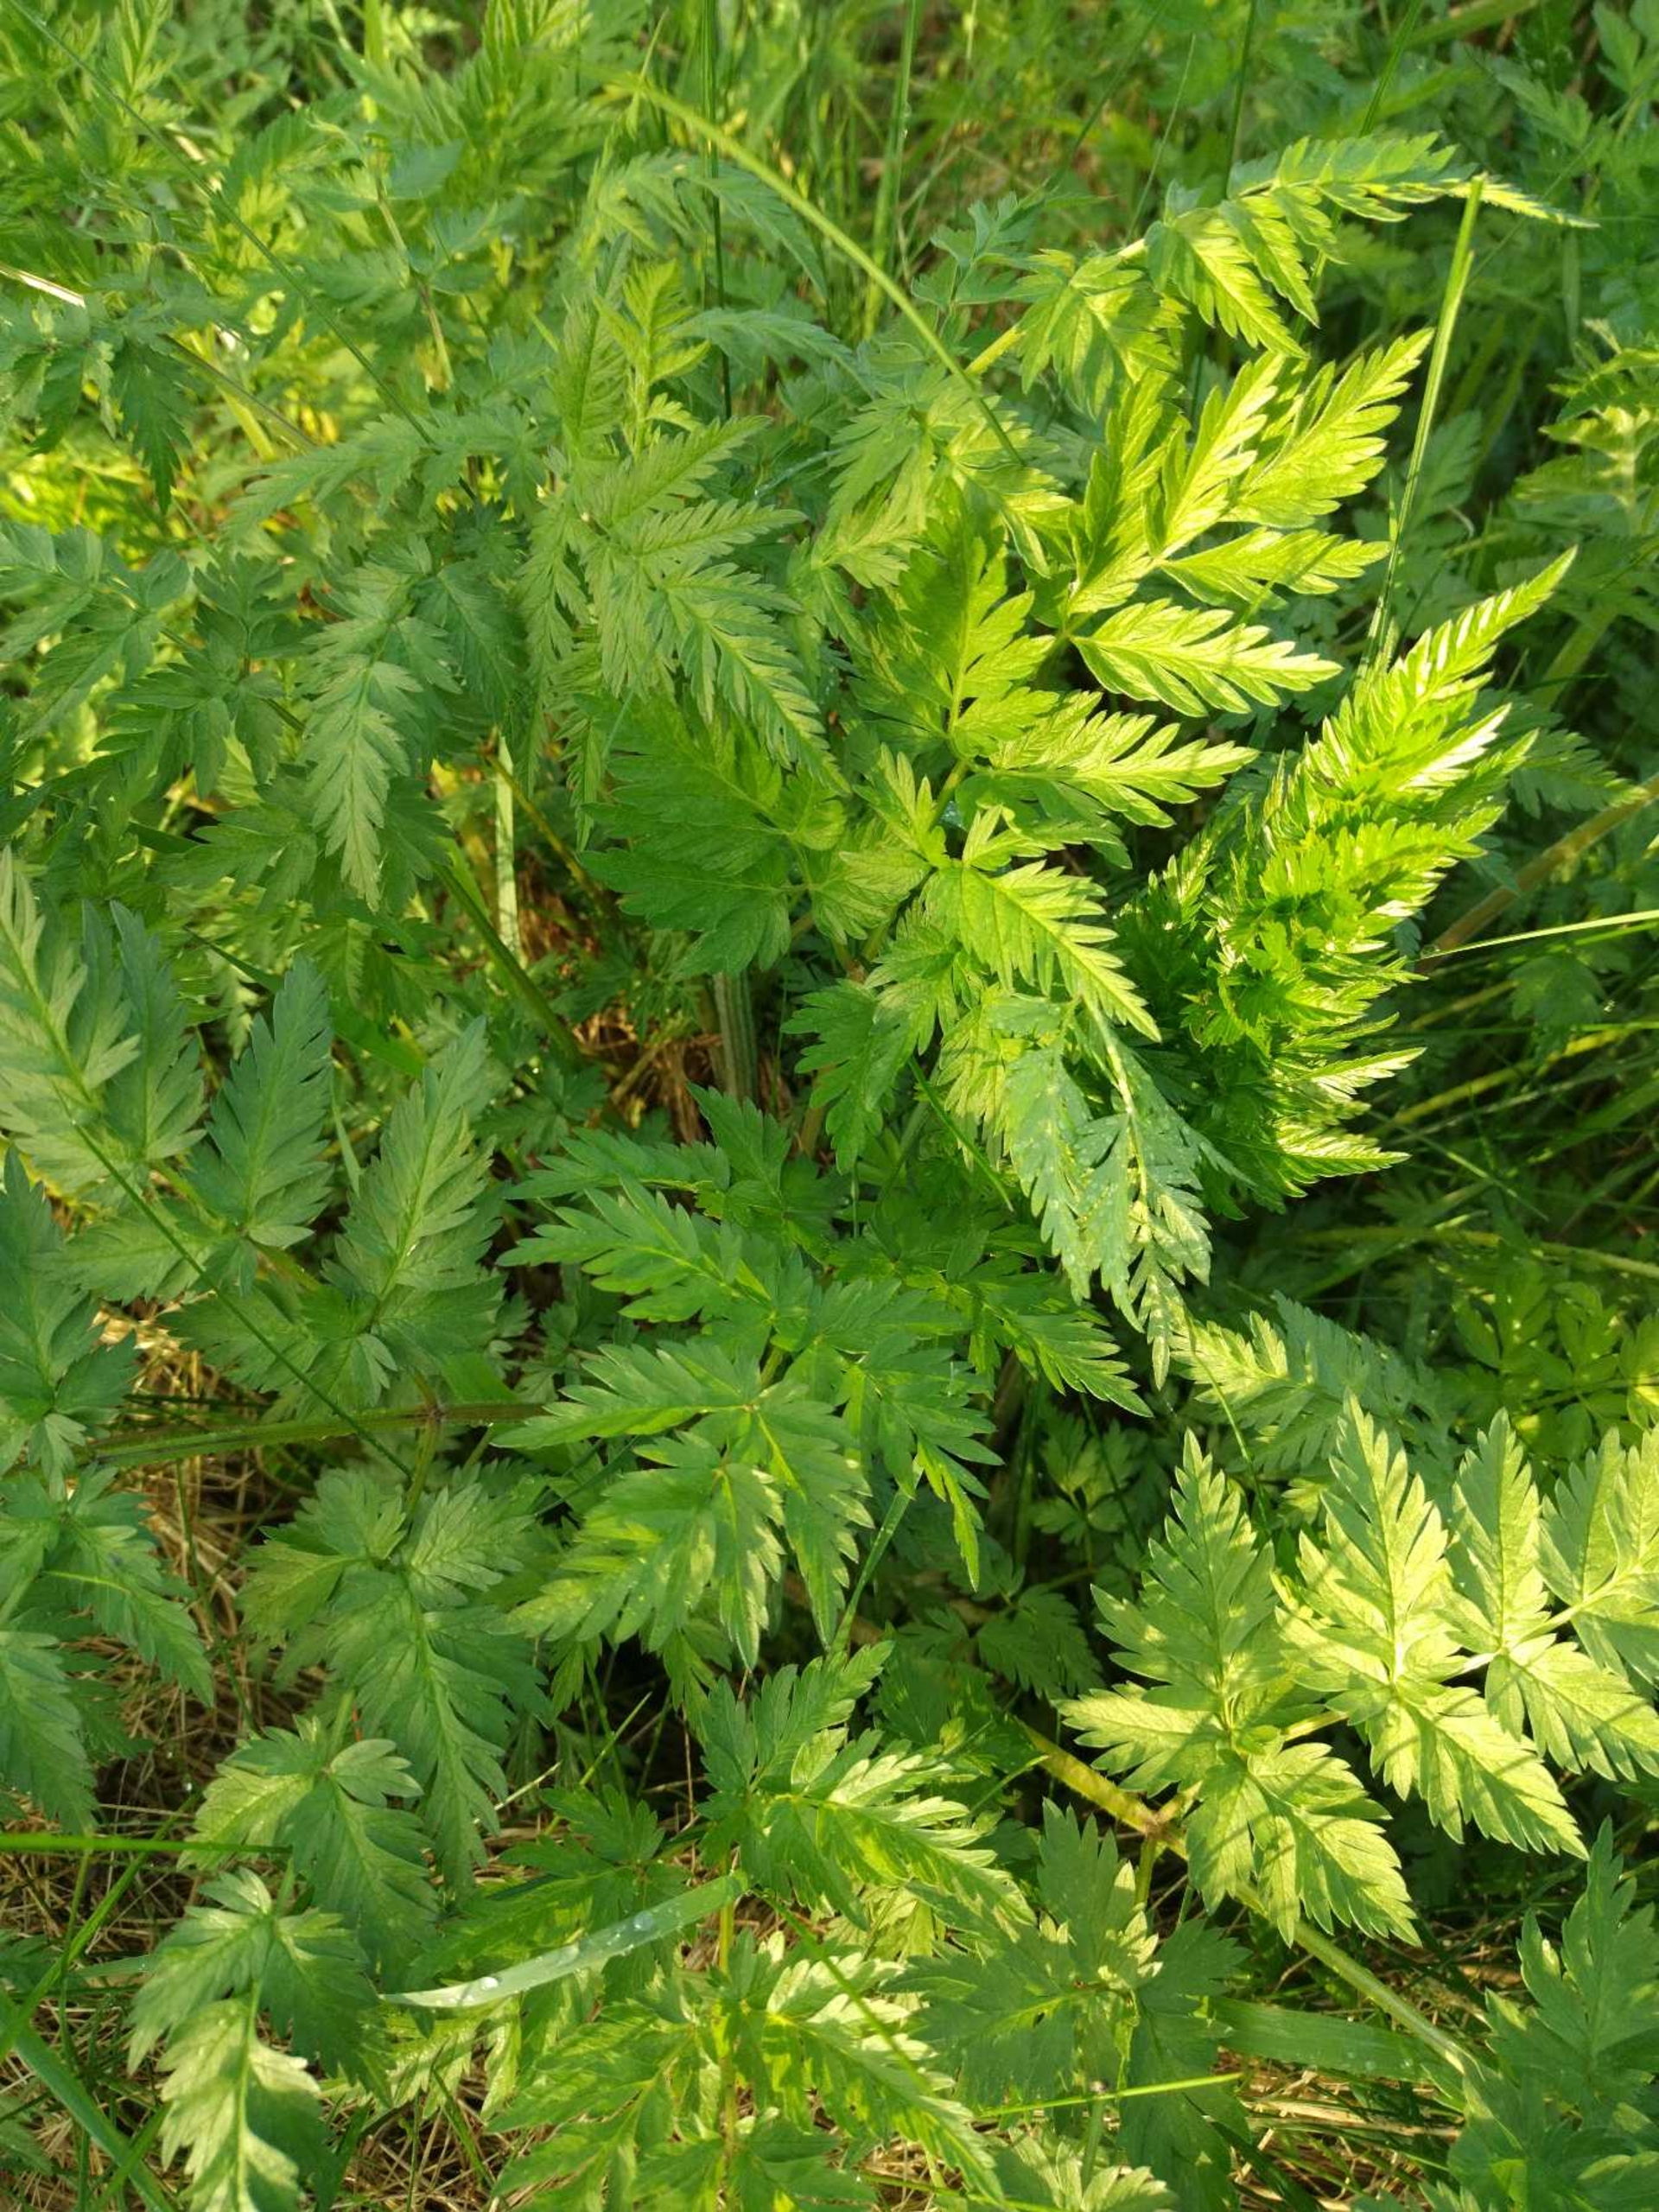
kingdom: Plantae
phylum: Tracheophyta
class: Magnoliopsida
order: Apiales
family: Apiaceae
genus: Anthriscus
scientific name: Anthriscus sylvestris
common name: Vild kørvel
